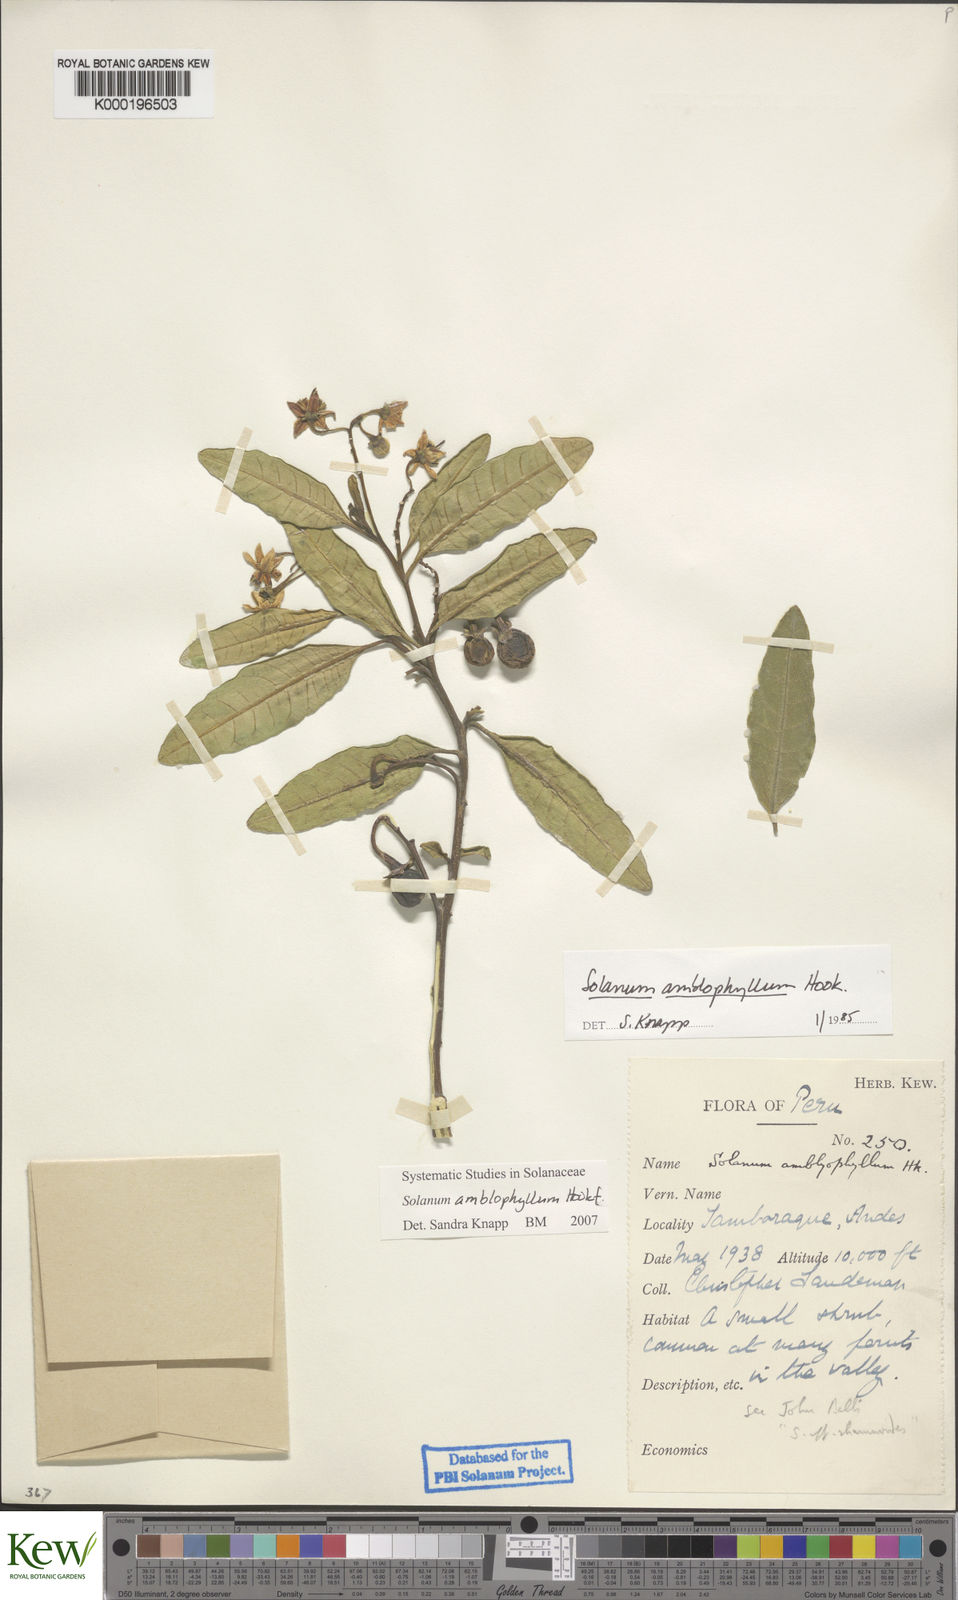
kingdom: Plantae
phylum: Tracheophyta
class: Magnoliopsida
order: Solanales
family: Solanaceae
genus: Solanum
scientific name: Solanum amblophyllum
